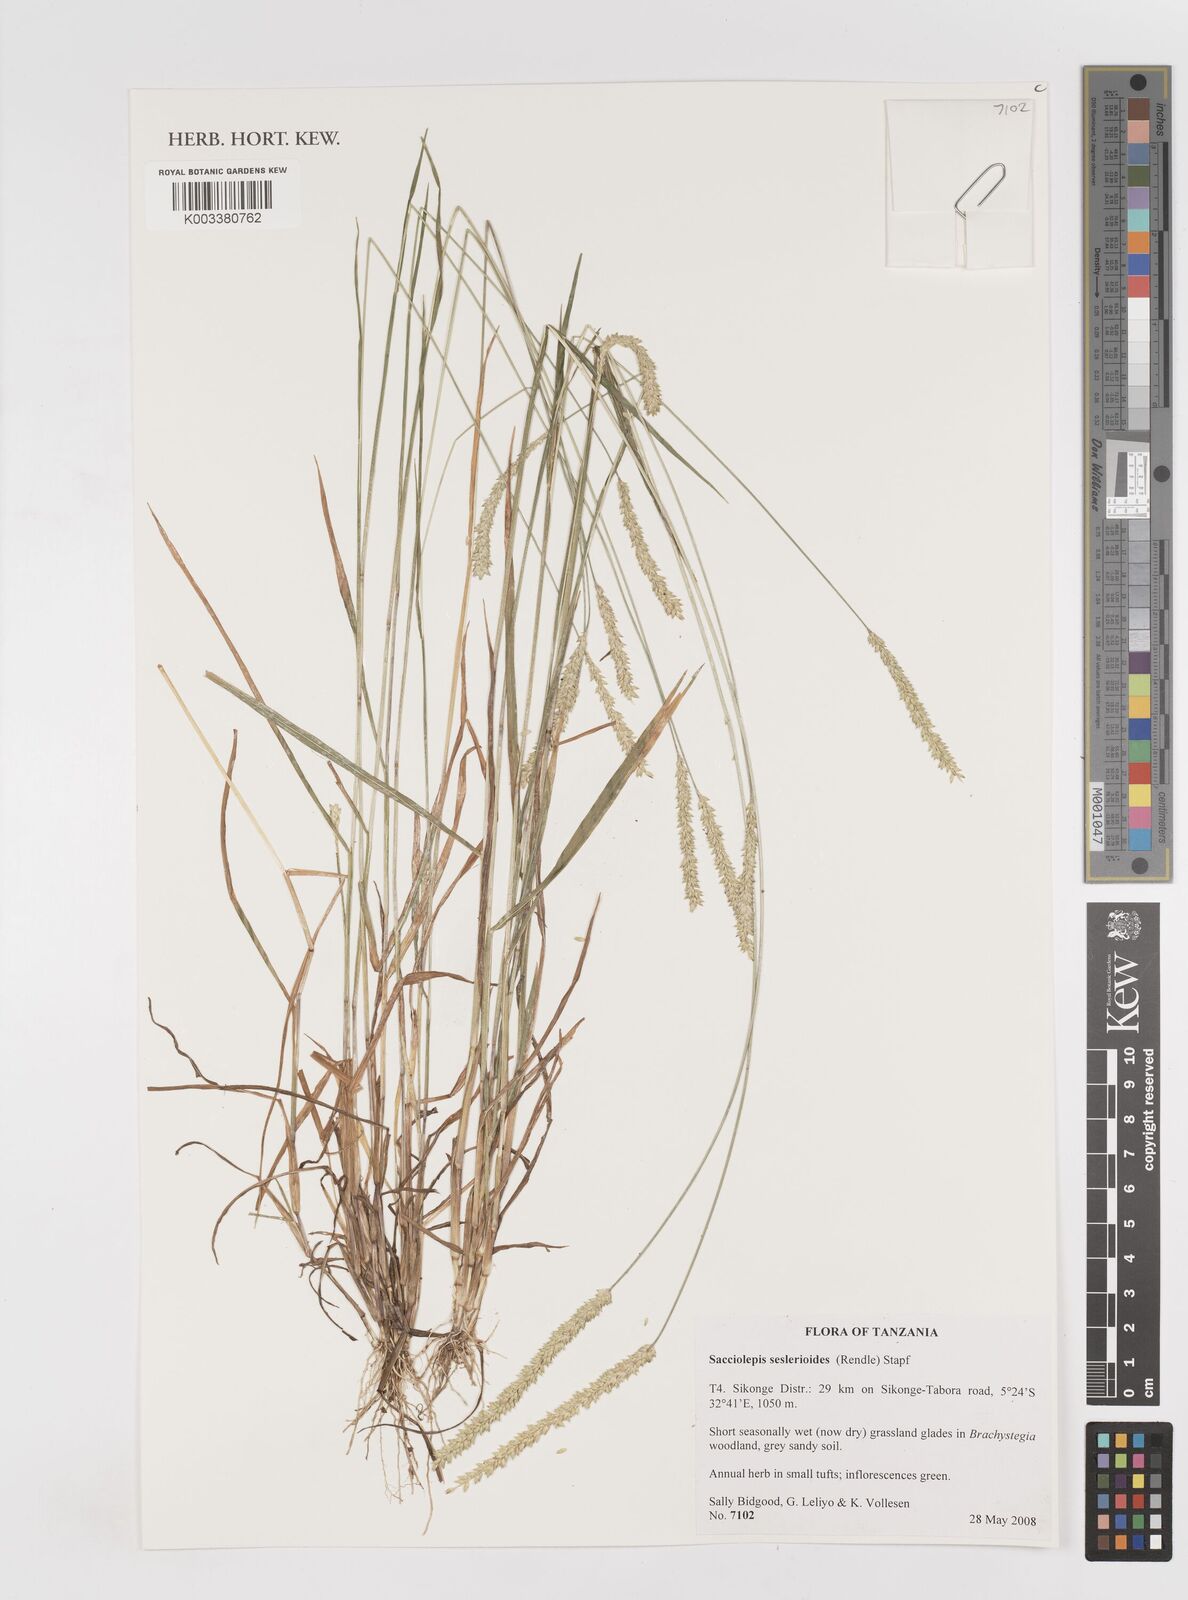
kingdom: Plantae
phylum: Tracheophyta
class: Liliopsida
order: Poales
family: Poaceae
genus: Sacciolepis
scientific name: Sacciolepis seslerioides
